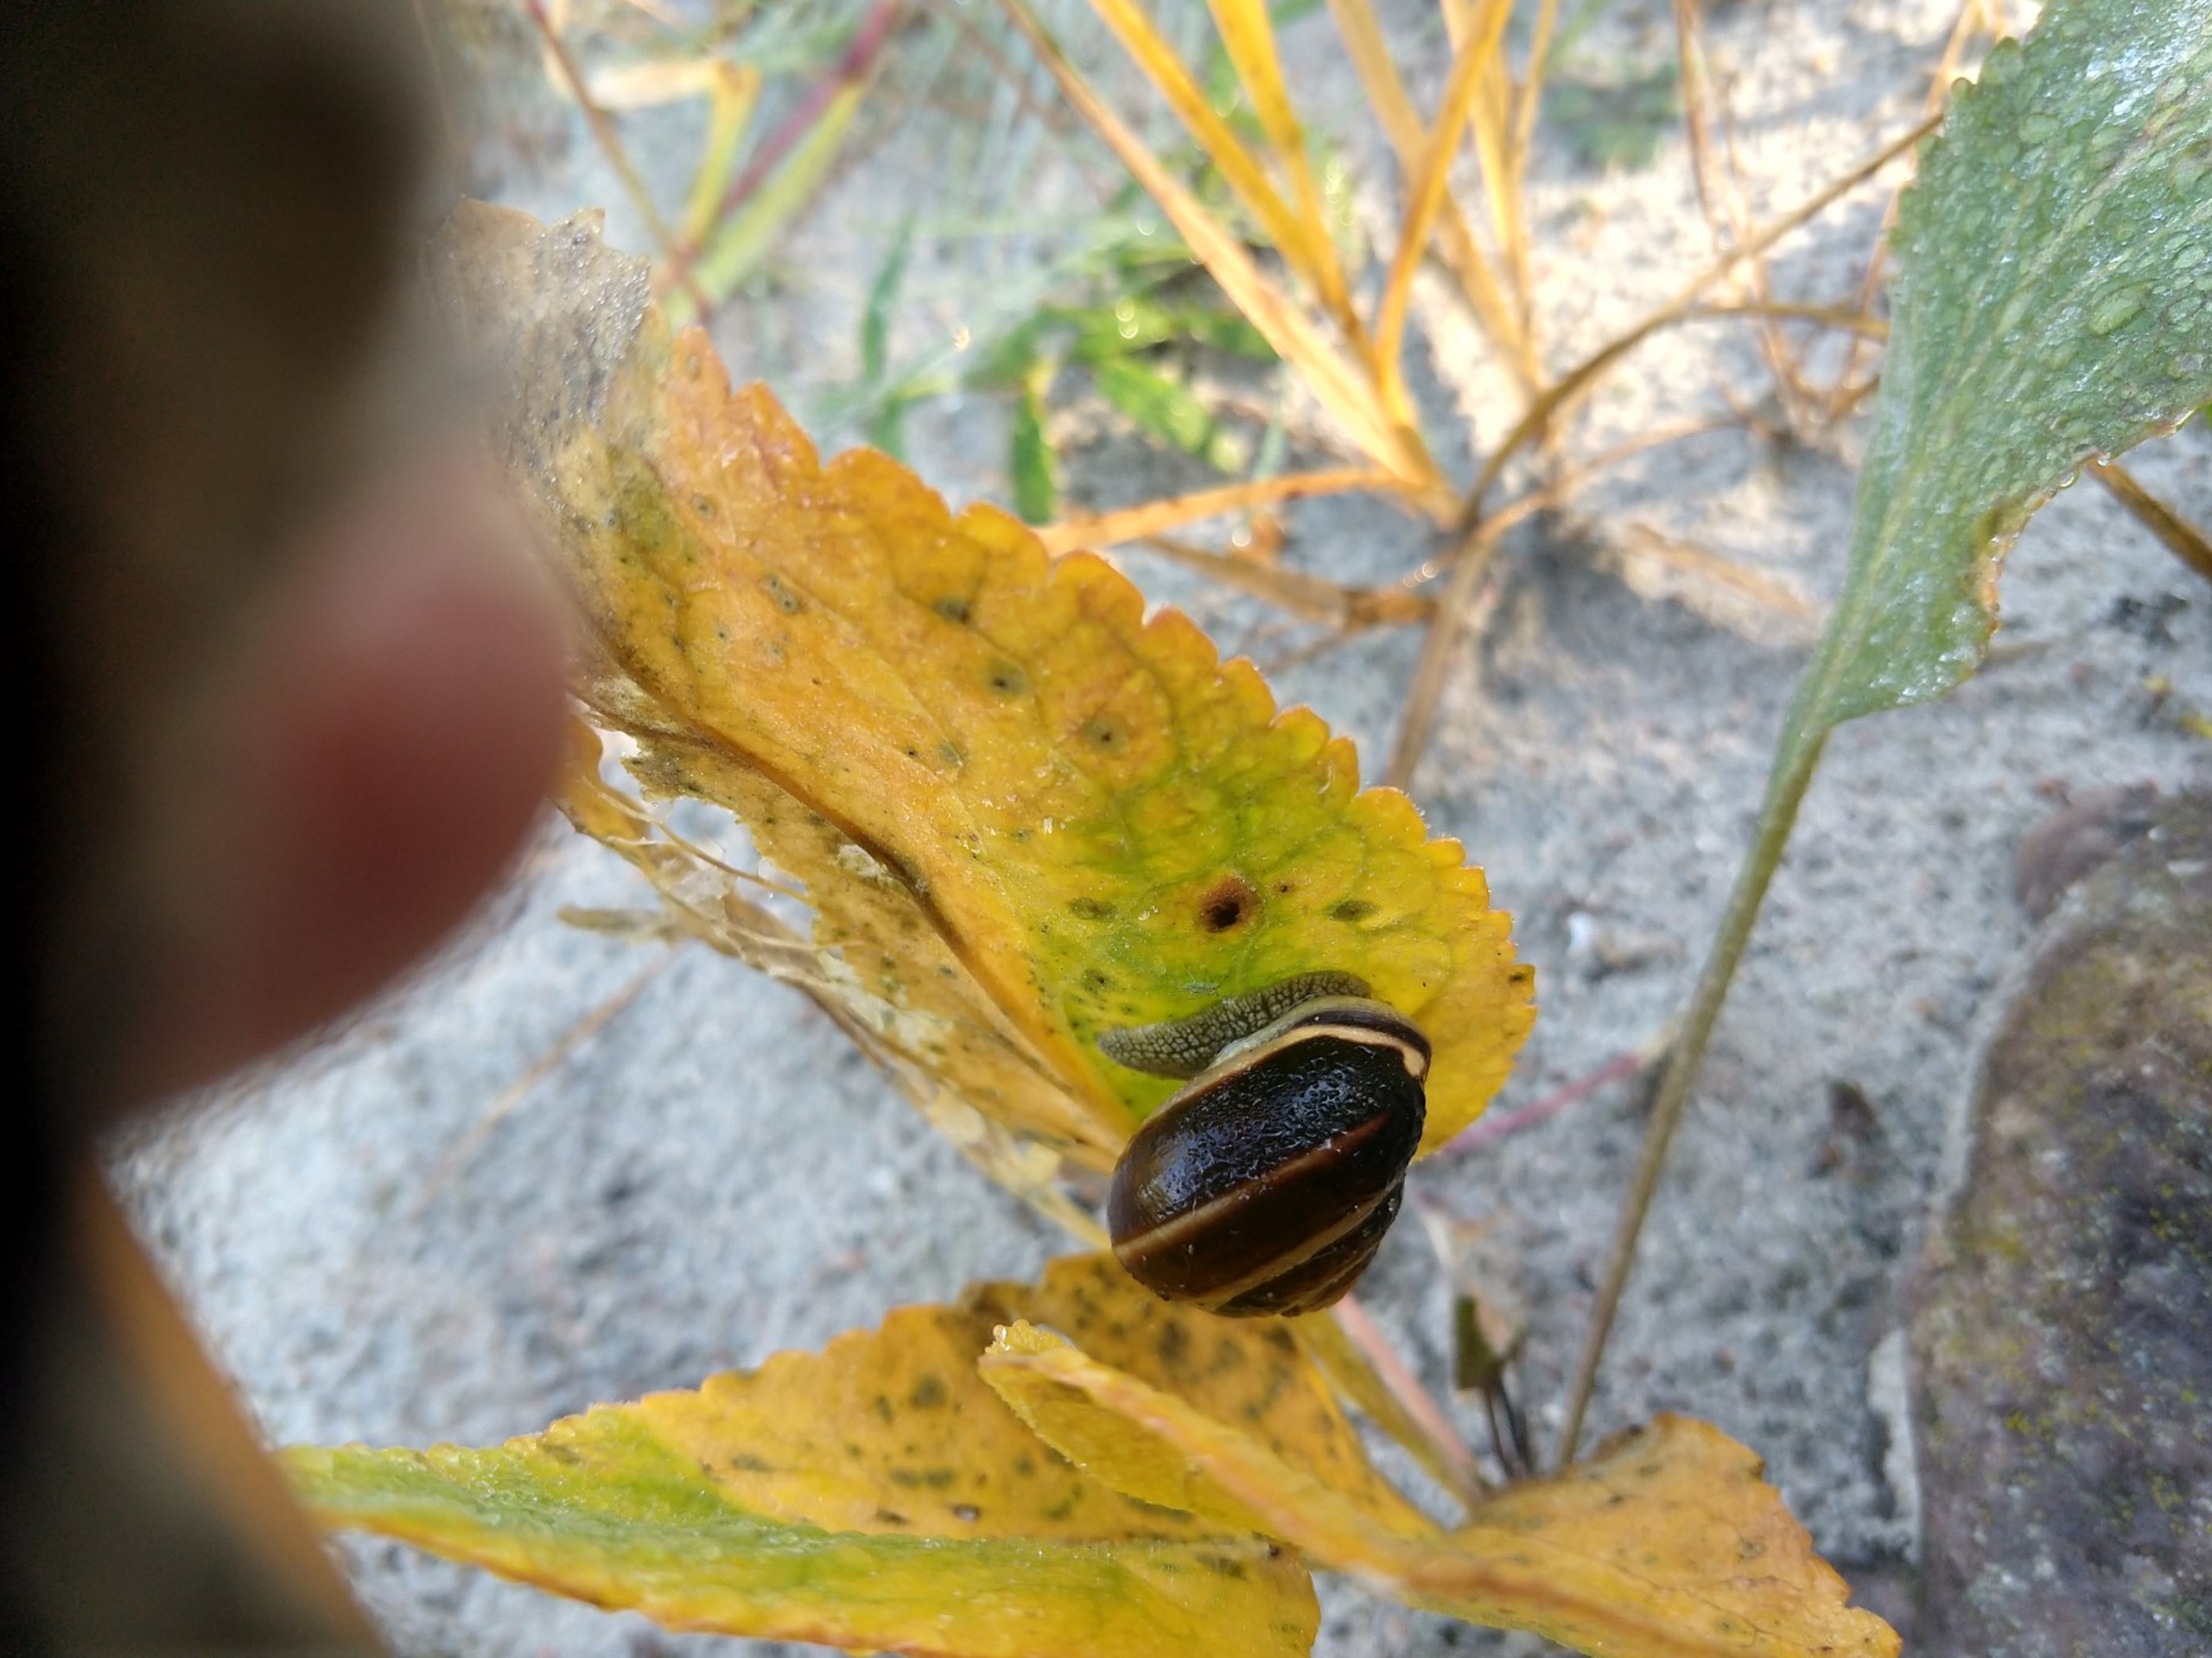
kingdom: Animalia
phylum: Mollusca
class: Gastropoda
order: Stylommatophora
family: Helicidae
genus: Cepaea
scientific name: Cepaea nemoralis
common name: Lundsnegl
